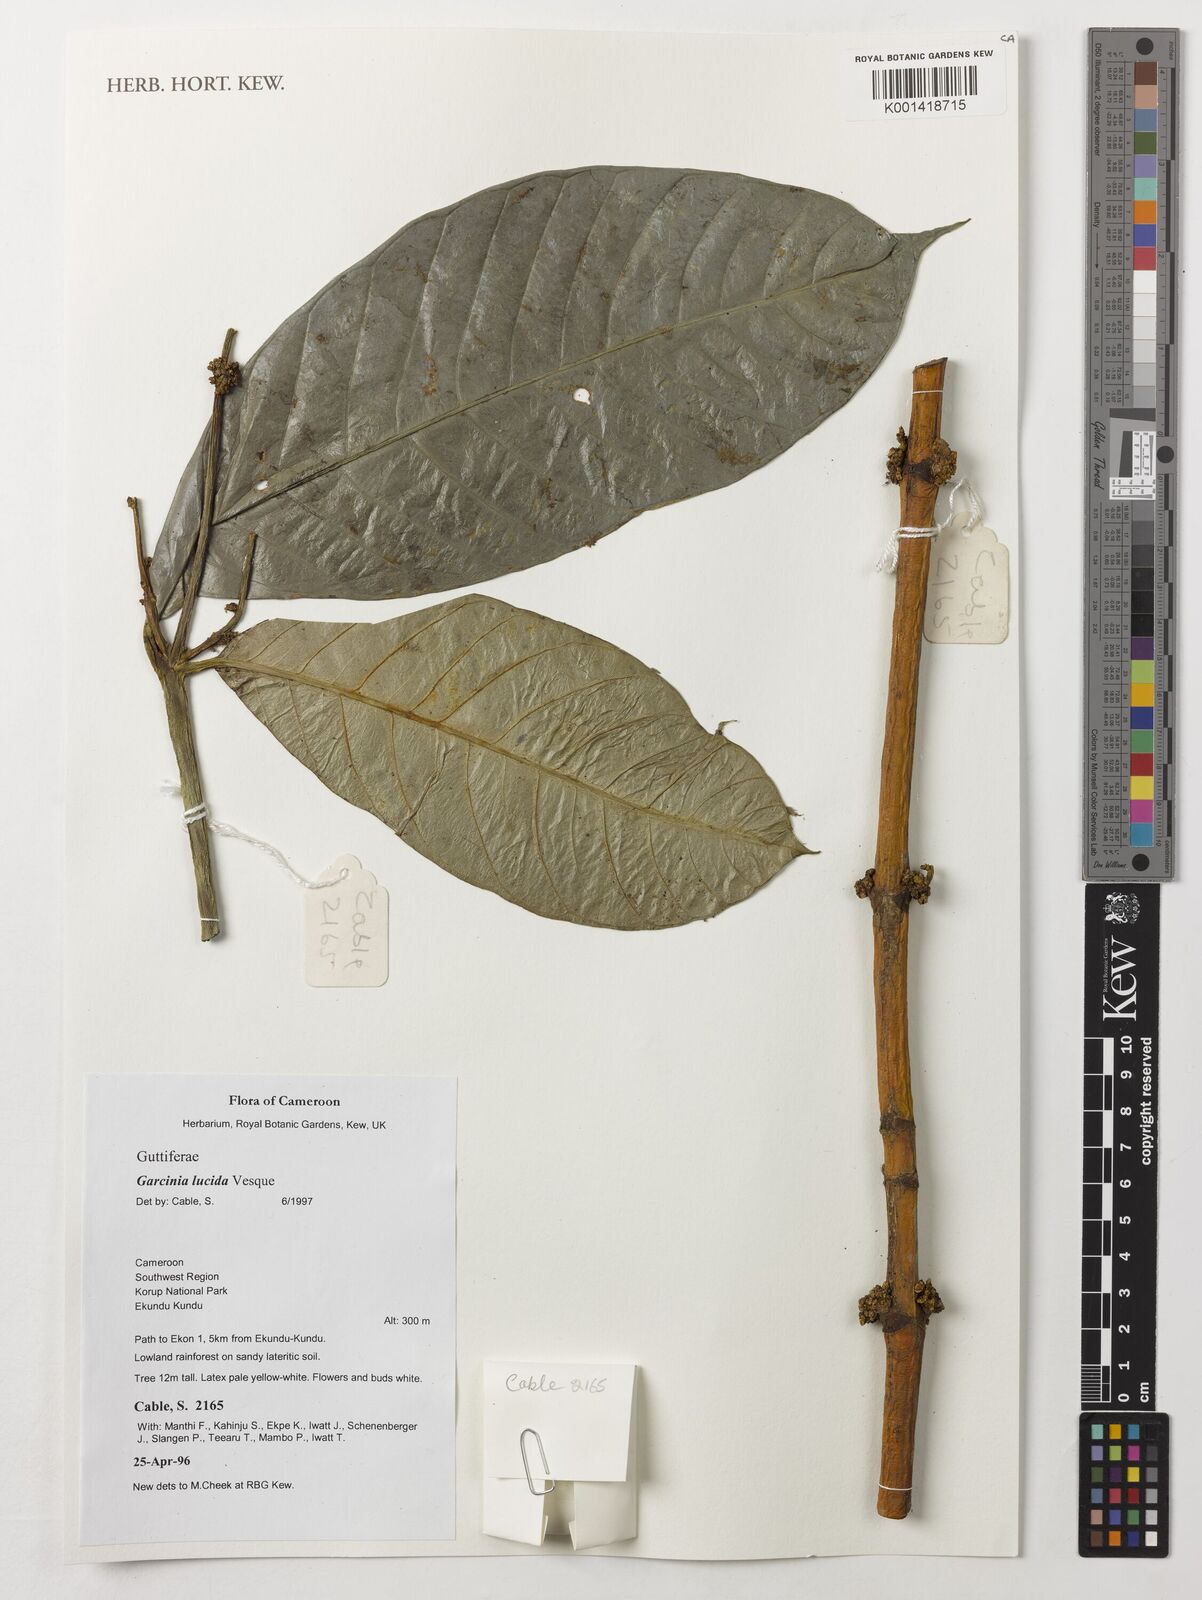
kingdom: Plantae
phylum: Tracheophyta
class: Magnoliopsida
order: Malpighiales
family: Clusiaceae
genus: Garcinia
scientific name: Garcinia lucida
